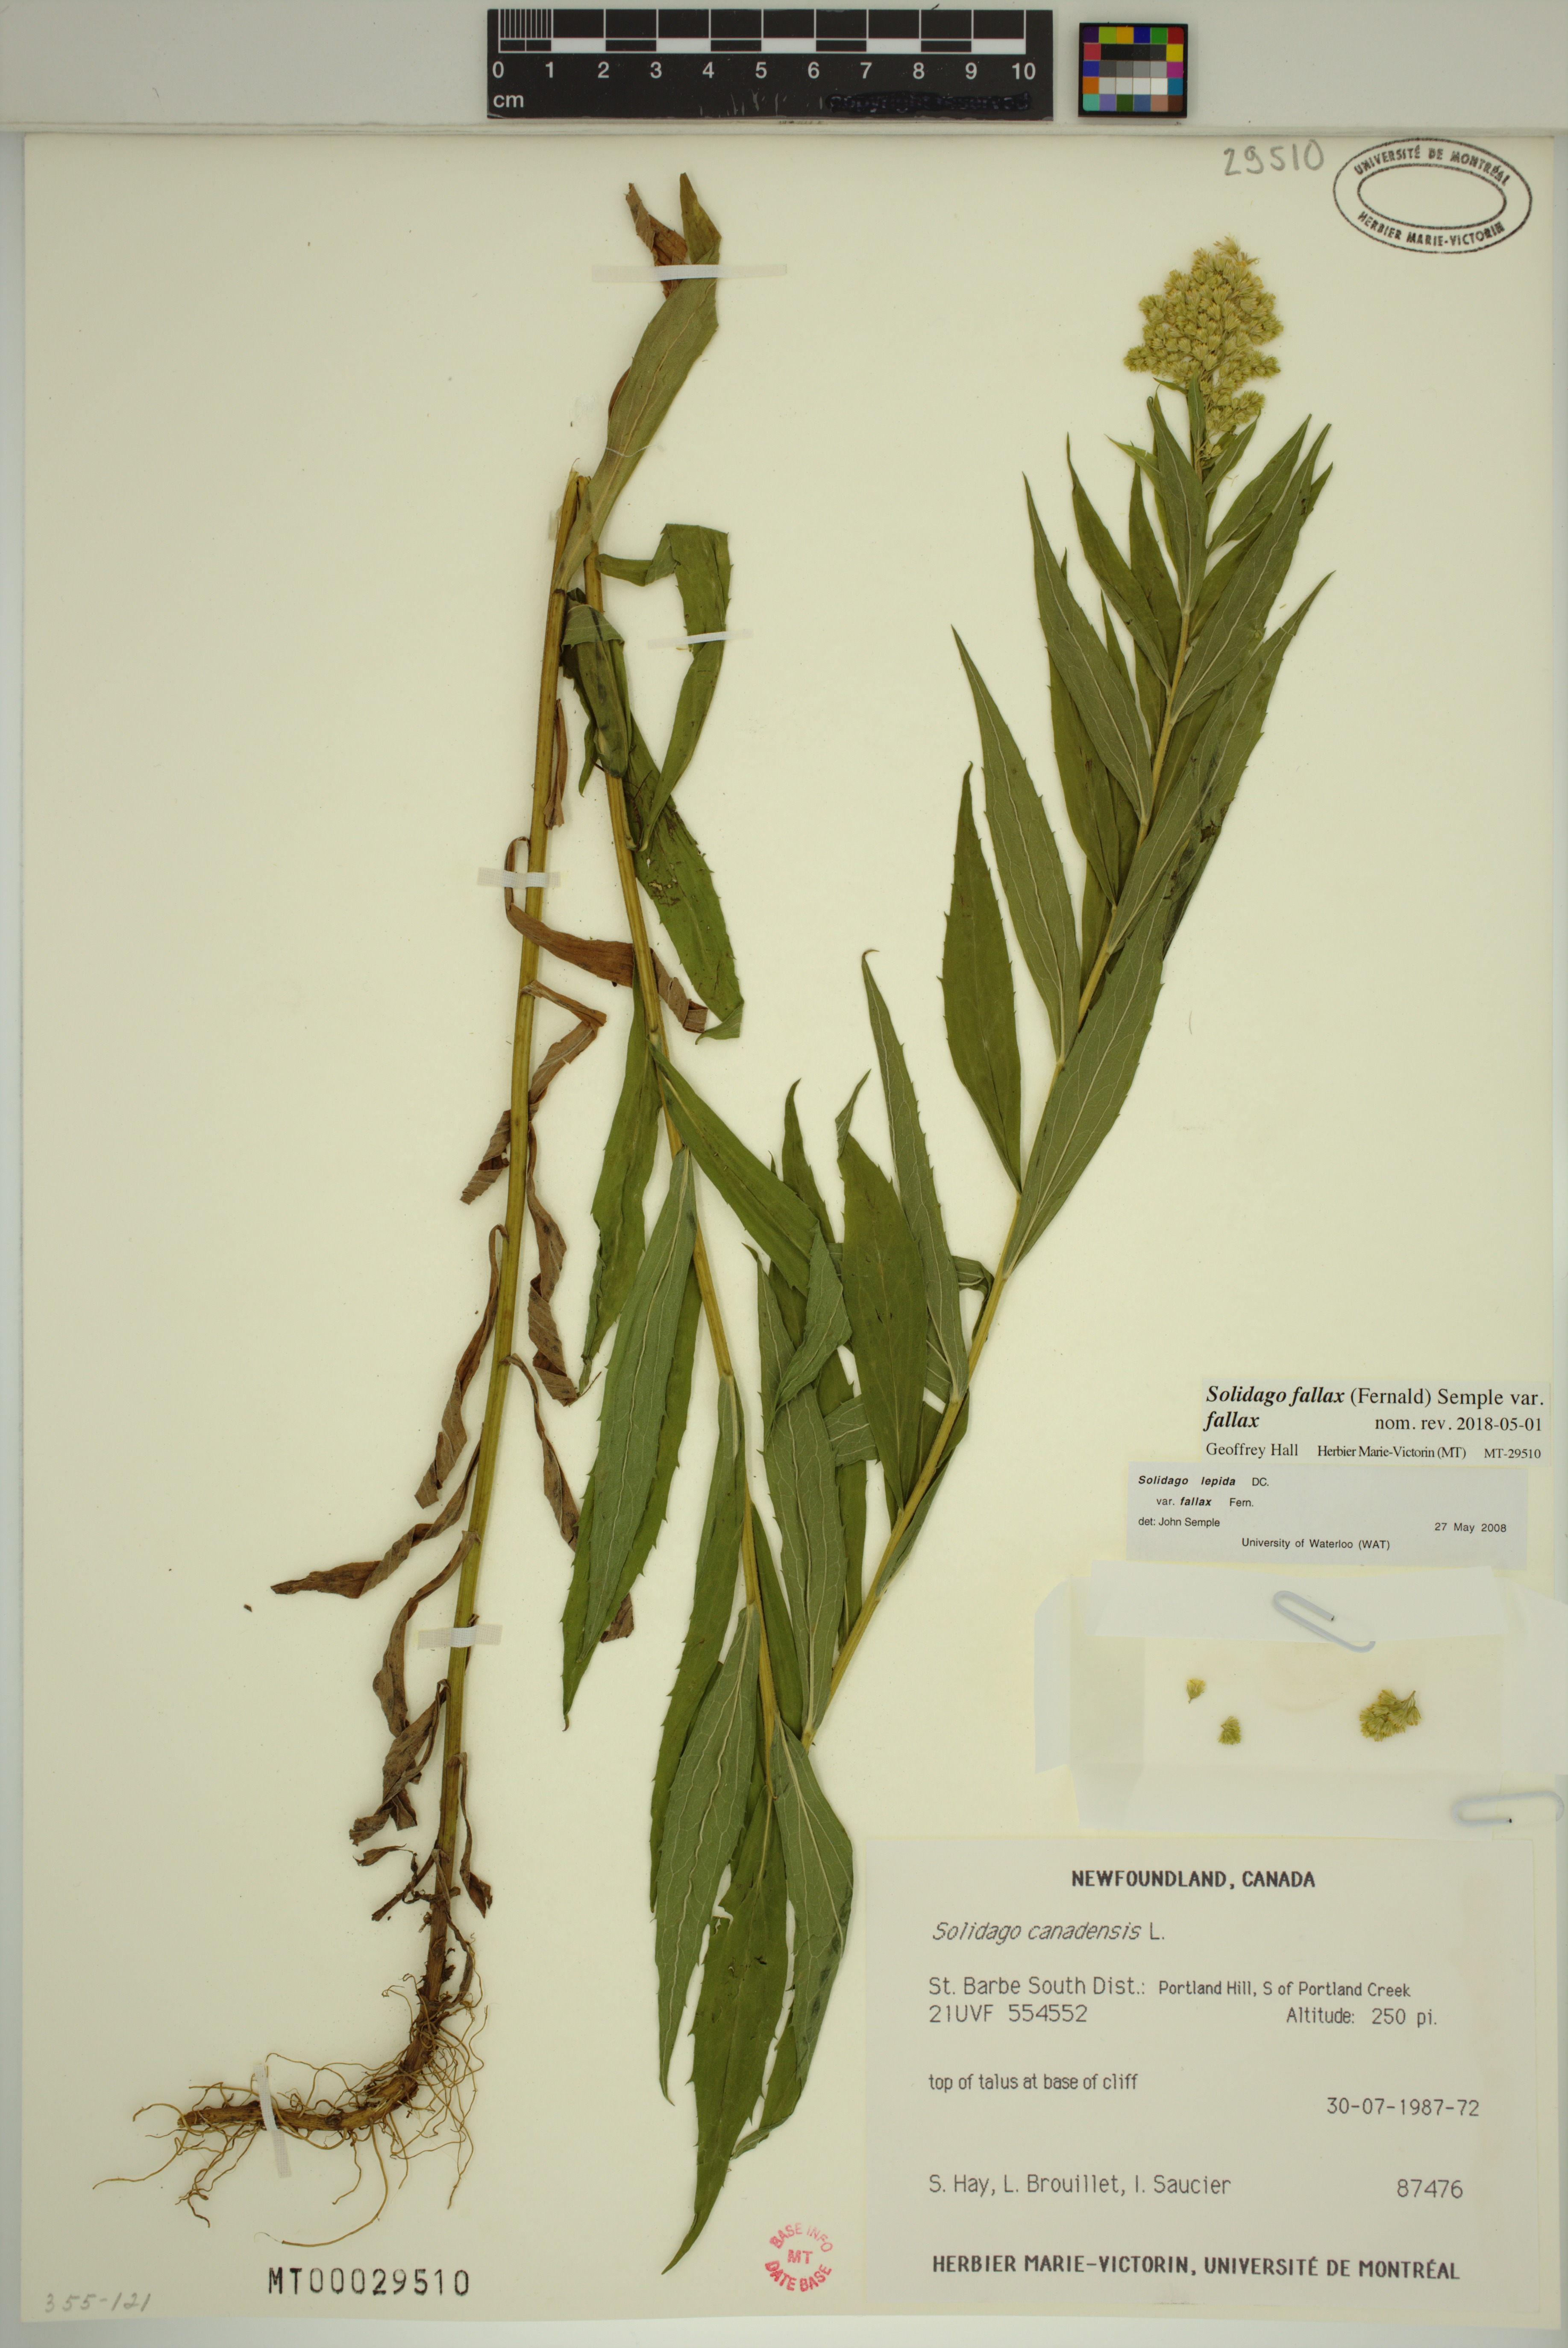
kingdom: Plantae
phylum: Tracheophyta
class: Magnoliopsida
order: Asterales
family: Asteraceae
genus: Solidago
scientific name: Solidago brendae
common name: Brenda's goldenrod
